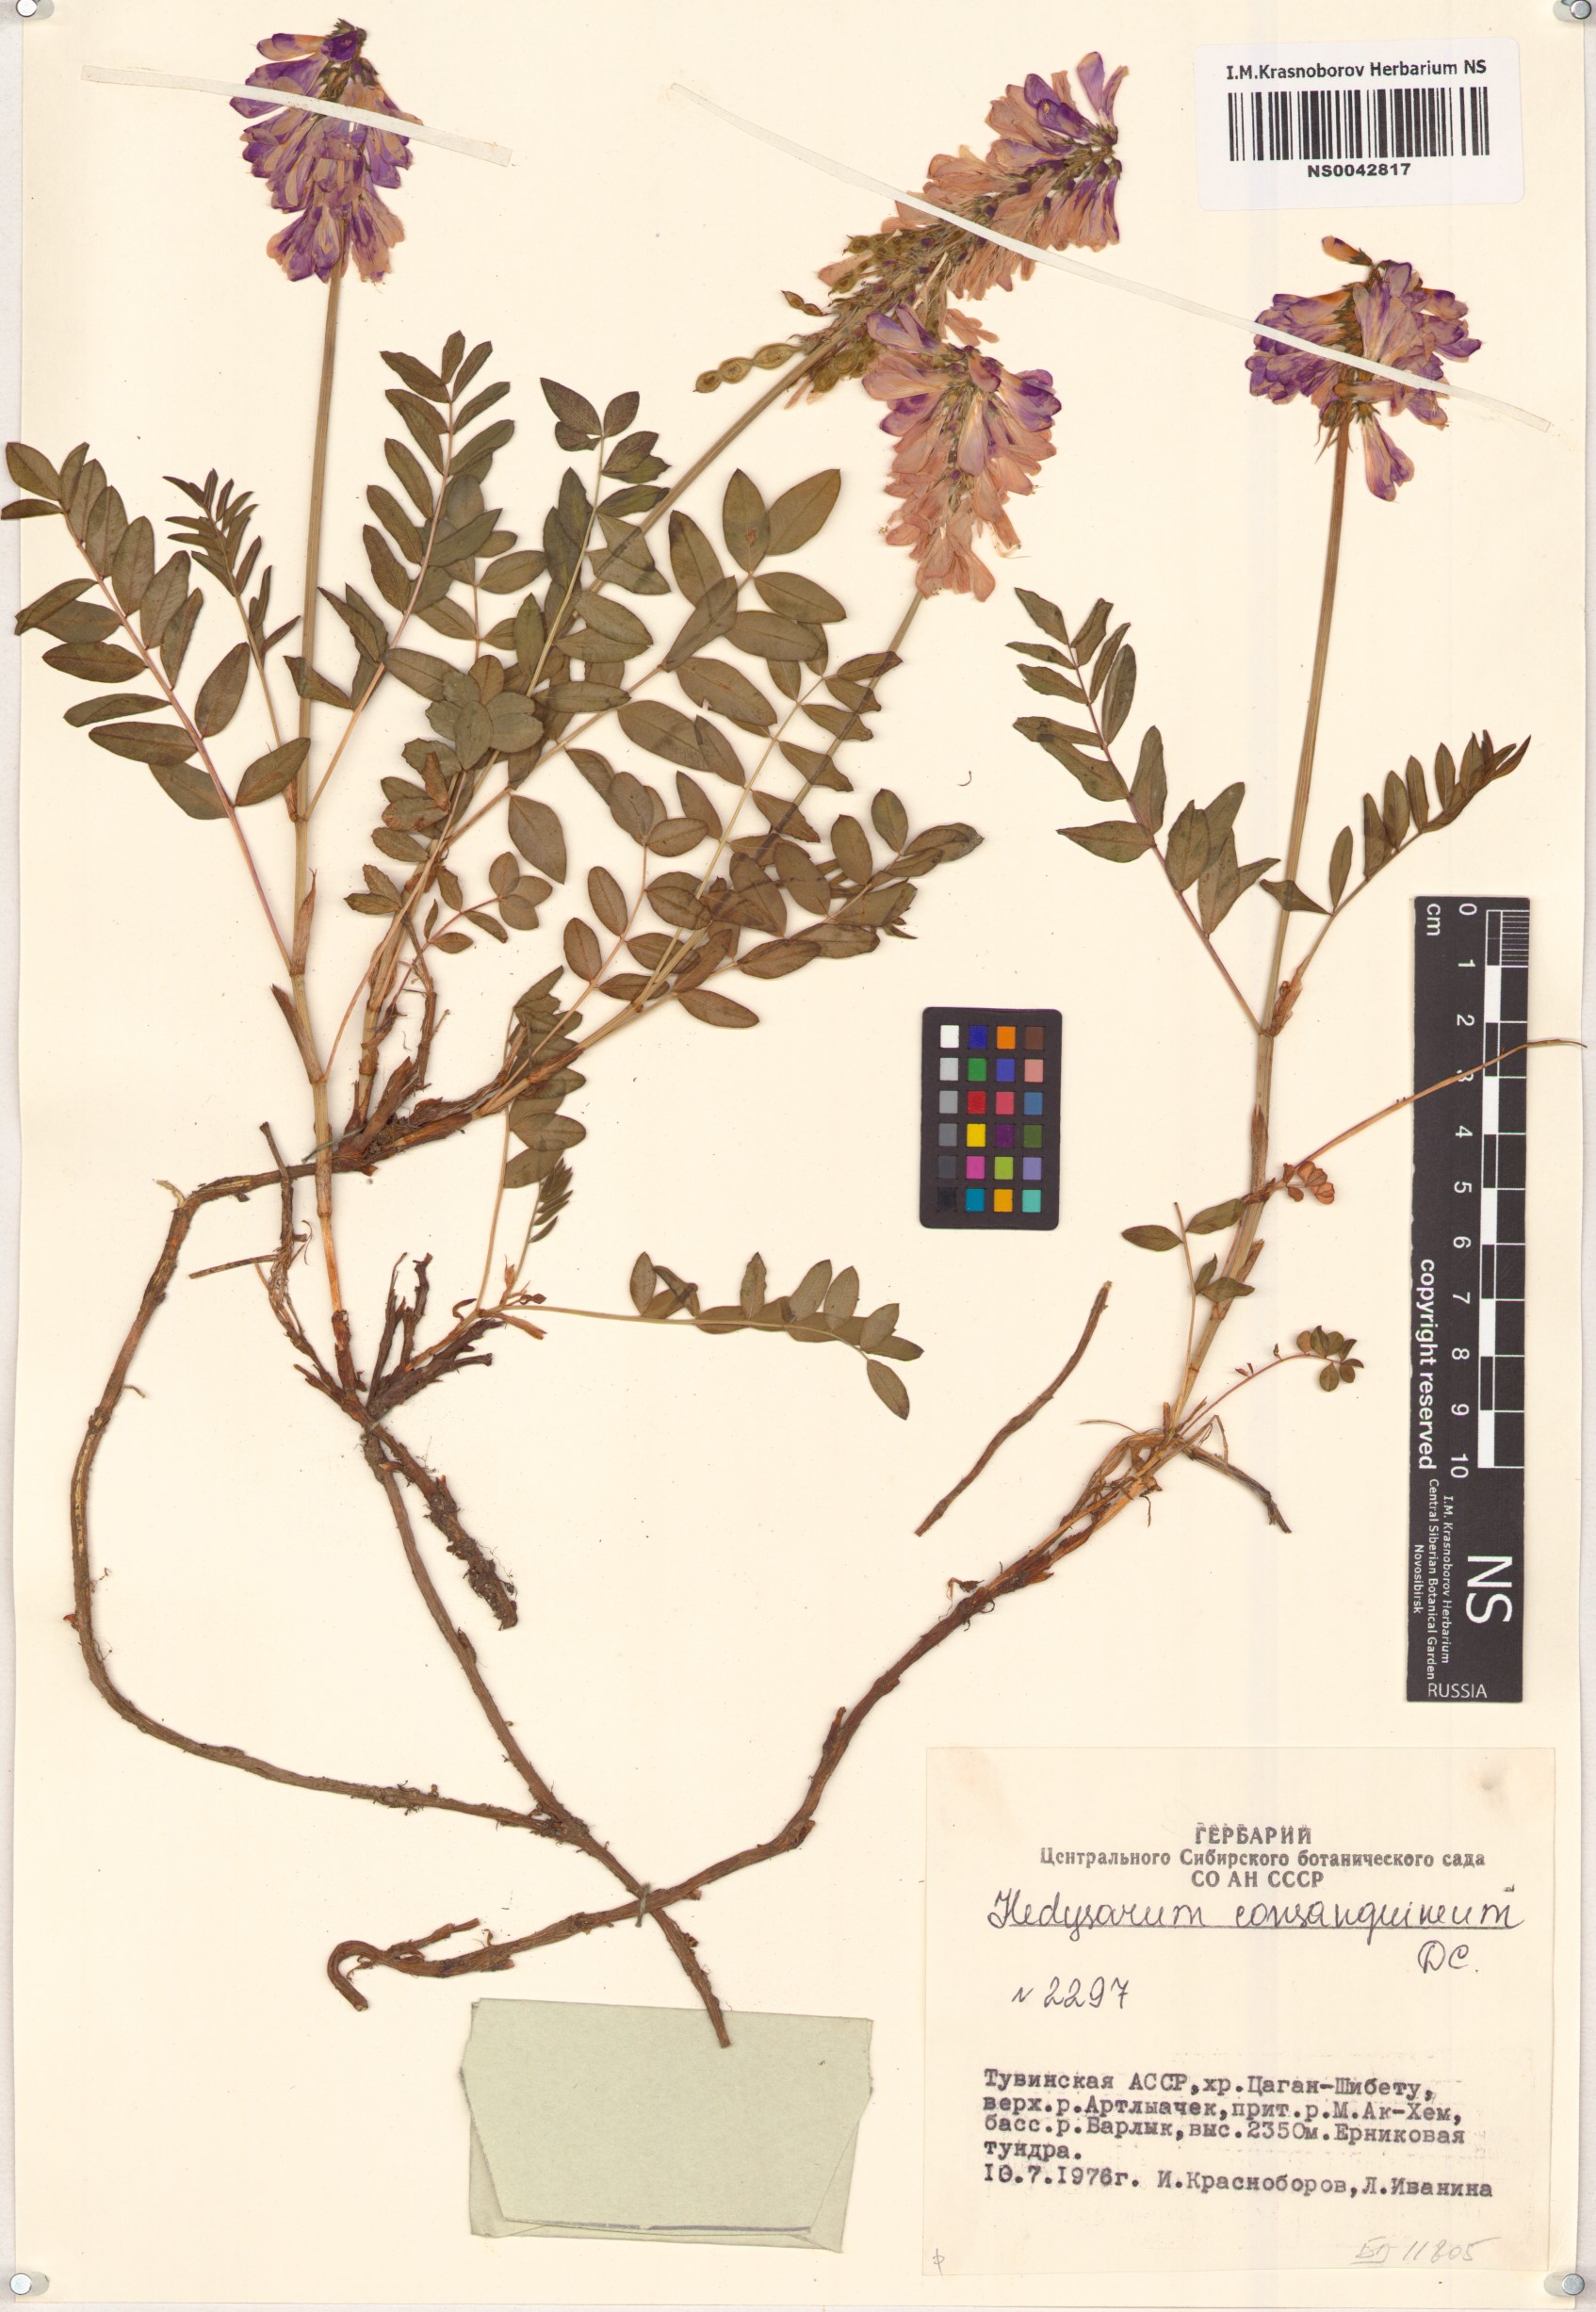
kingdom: Plantae
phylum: Tracheophyta
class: Magnoliopsida
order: Fabales
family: Fabaceae
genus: Hedysarum
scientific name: Hedysarum consanguineum
